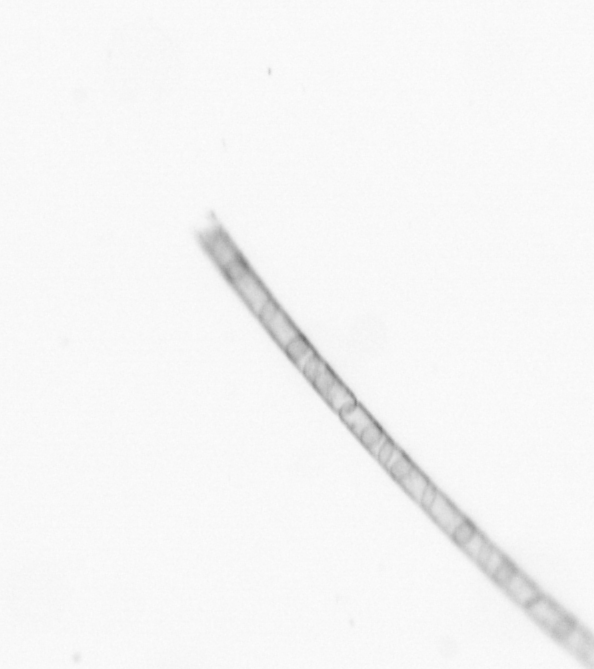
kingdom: Chromista
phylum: Ochrophyta
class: Bacillariophyceae
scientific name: Bacillariophyceae
